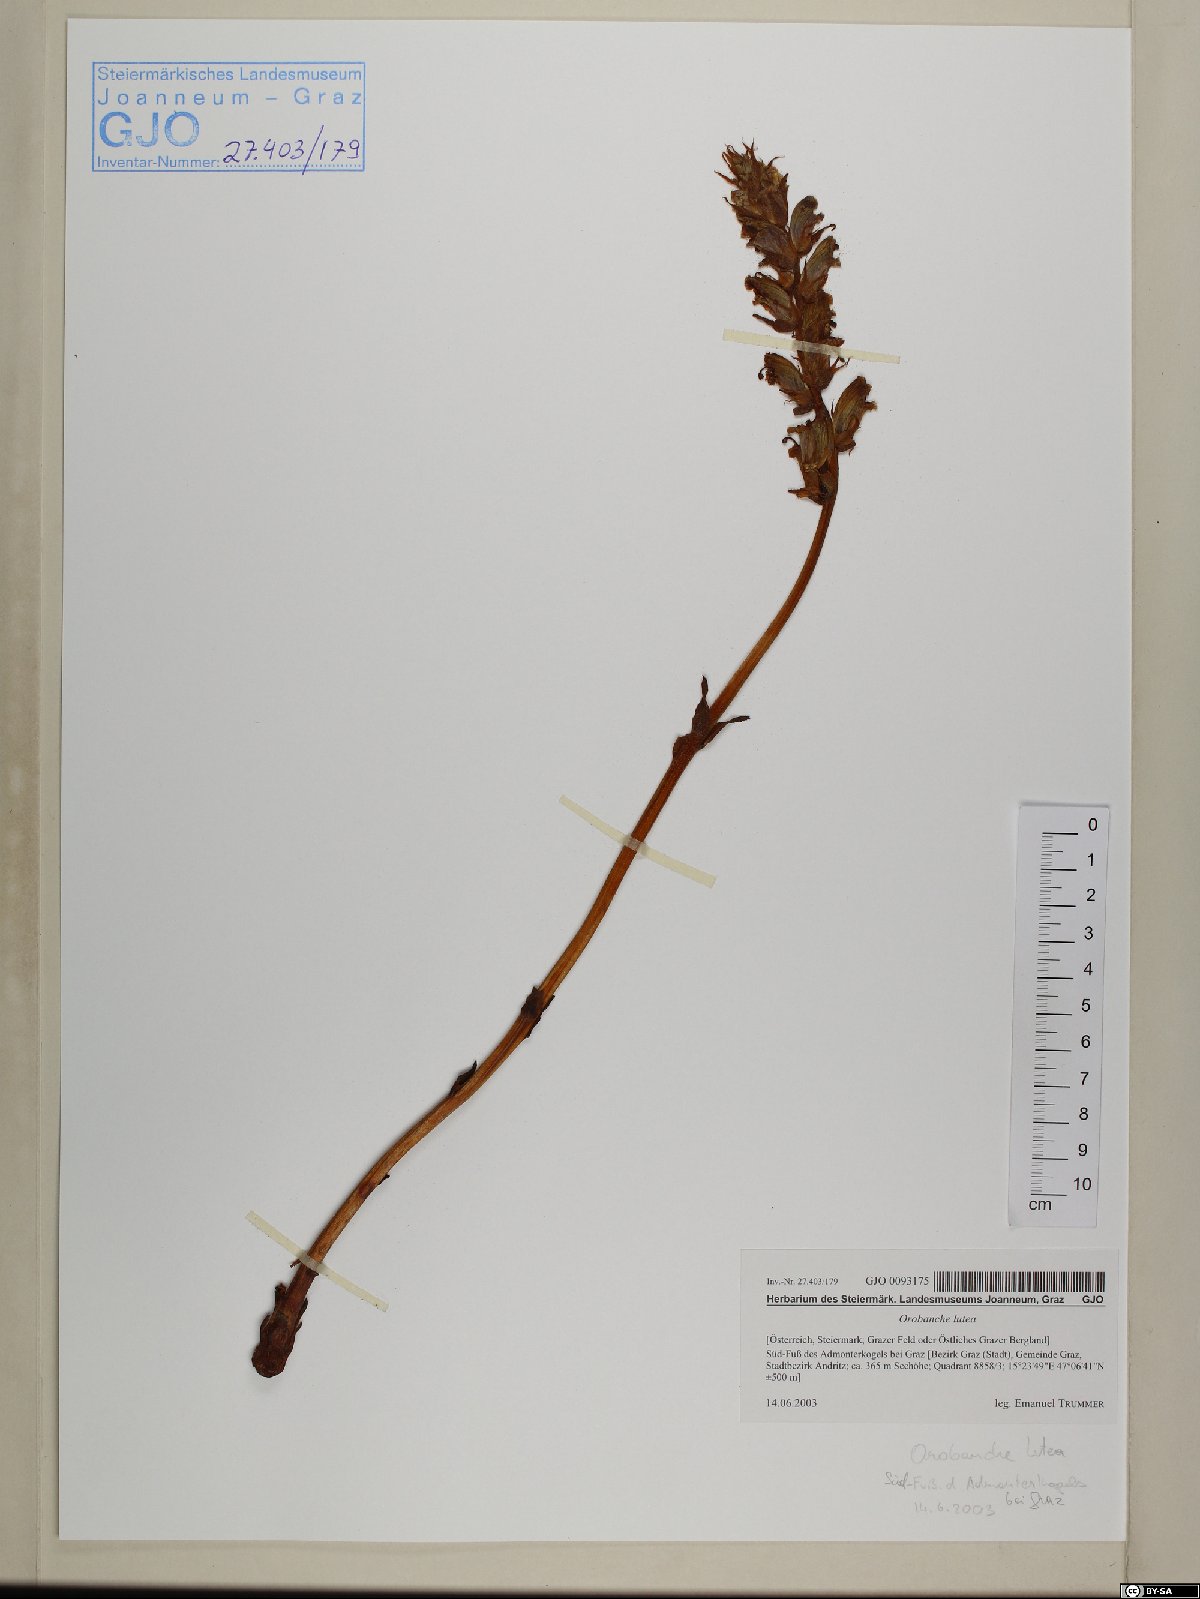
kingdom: Plantae
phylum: Tracheophyta
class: Magnoliopsida
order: Lamiales
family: Orobanchaceae
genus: Orobanche
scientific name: Orobanche lutea
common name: Yellow broomrape
